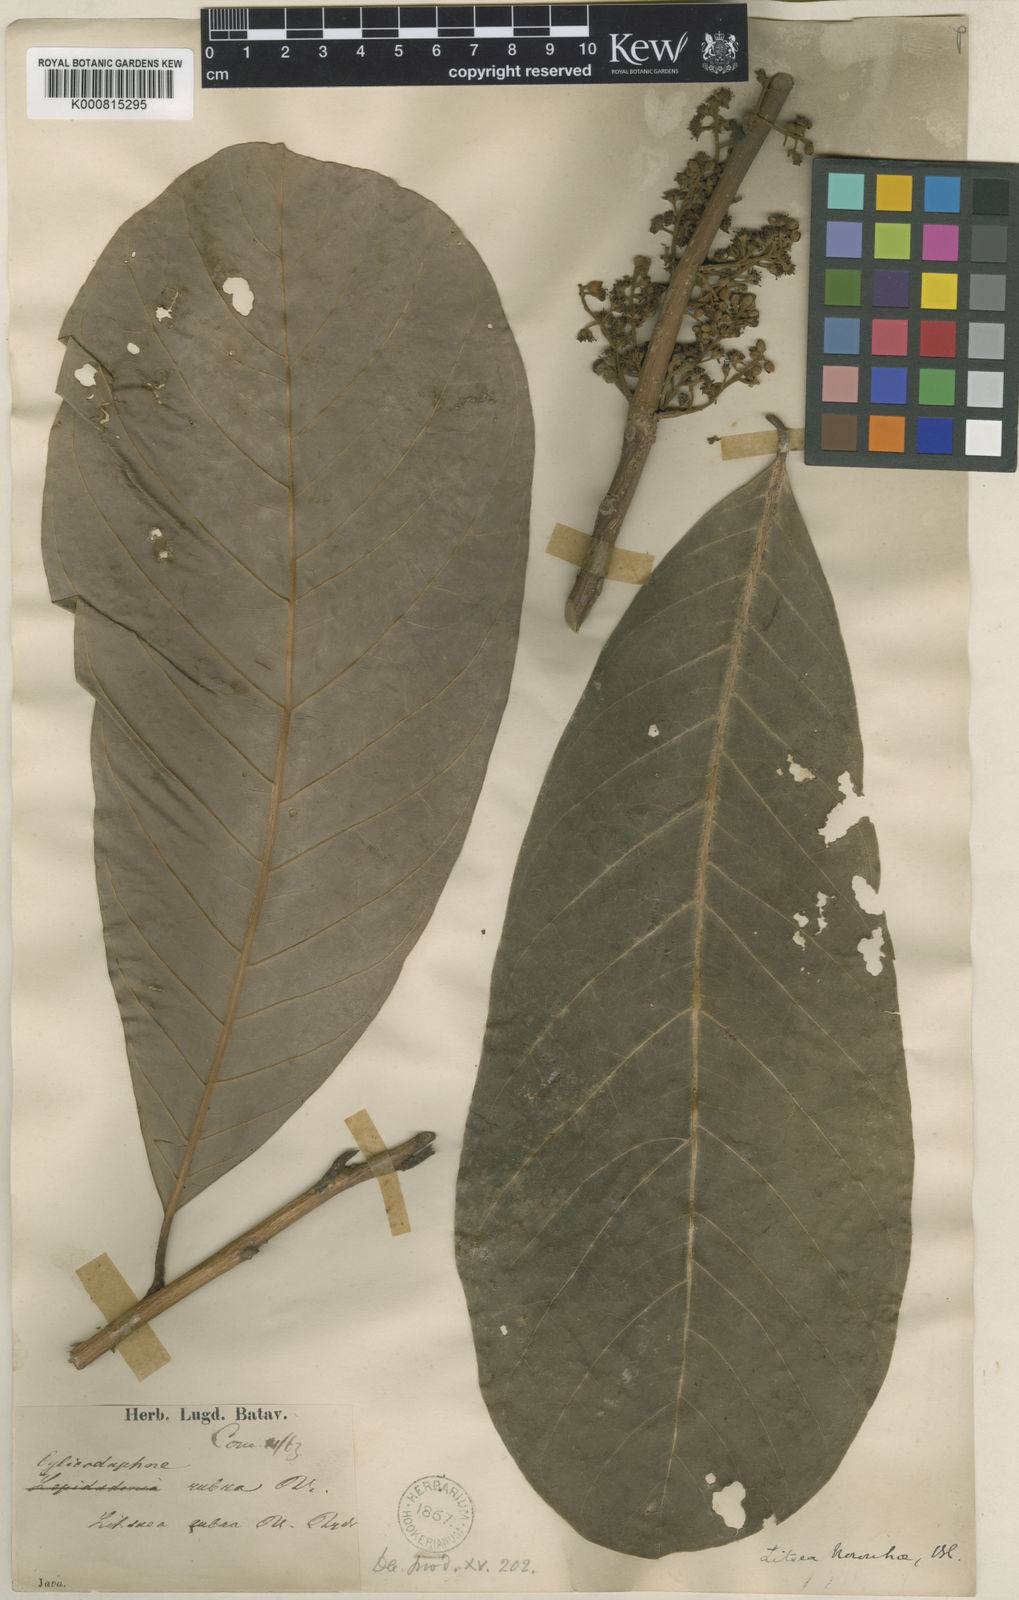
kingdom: Plantae
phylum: Tracheophyta
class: Magnoliopsida
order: Laurales
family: Lauraceae
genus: Litsea
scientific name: Litsea noronhae
